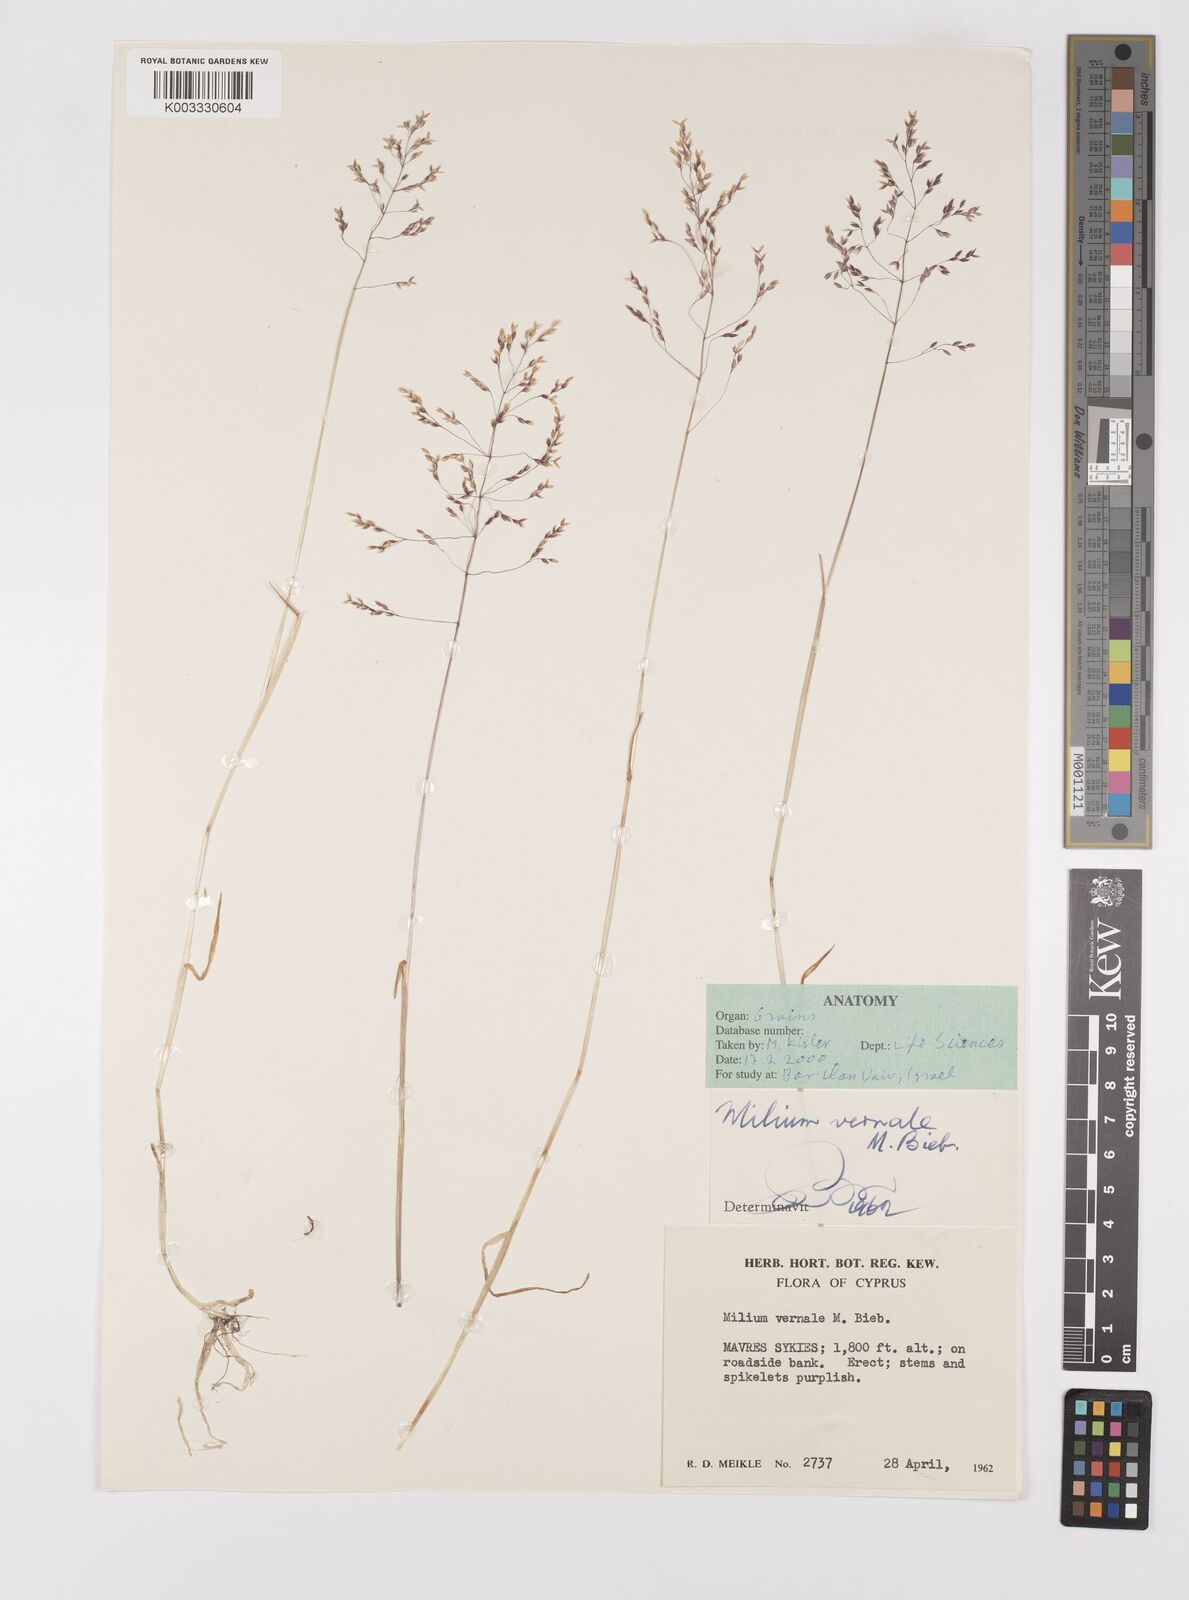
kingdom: Plantae
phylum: Tracheophyta
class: Liliopsida
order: Poales
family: Poaceae
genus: Milium
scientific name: Milium vernale
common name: Early millet
